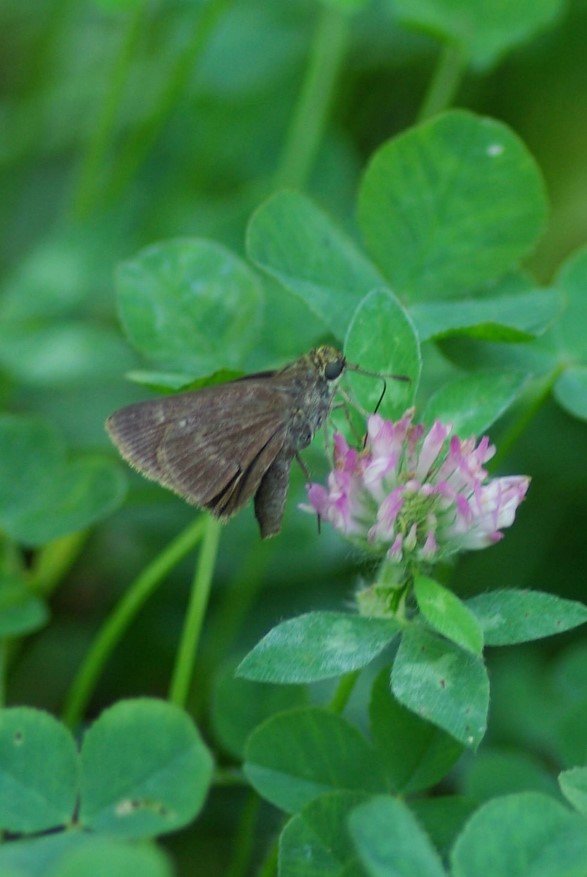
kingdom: Animalia
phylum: Arthropoda
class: Insecta
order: Lepidoptera
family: Hesperiidae
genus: Polites
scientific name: Polites egeremet
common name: Northern Broken-Dash
